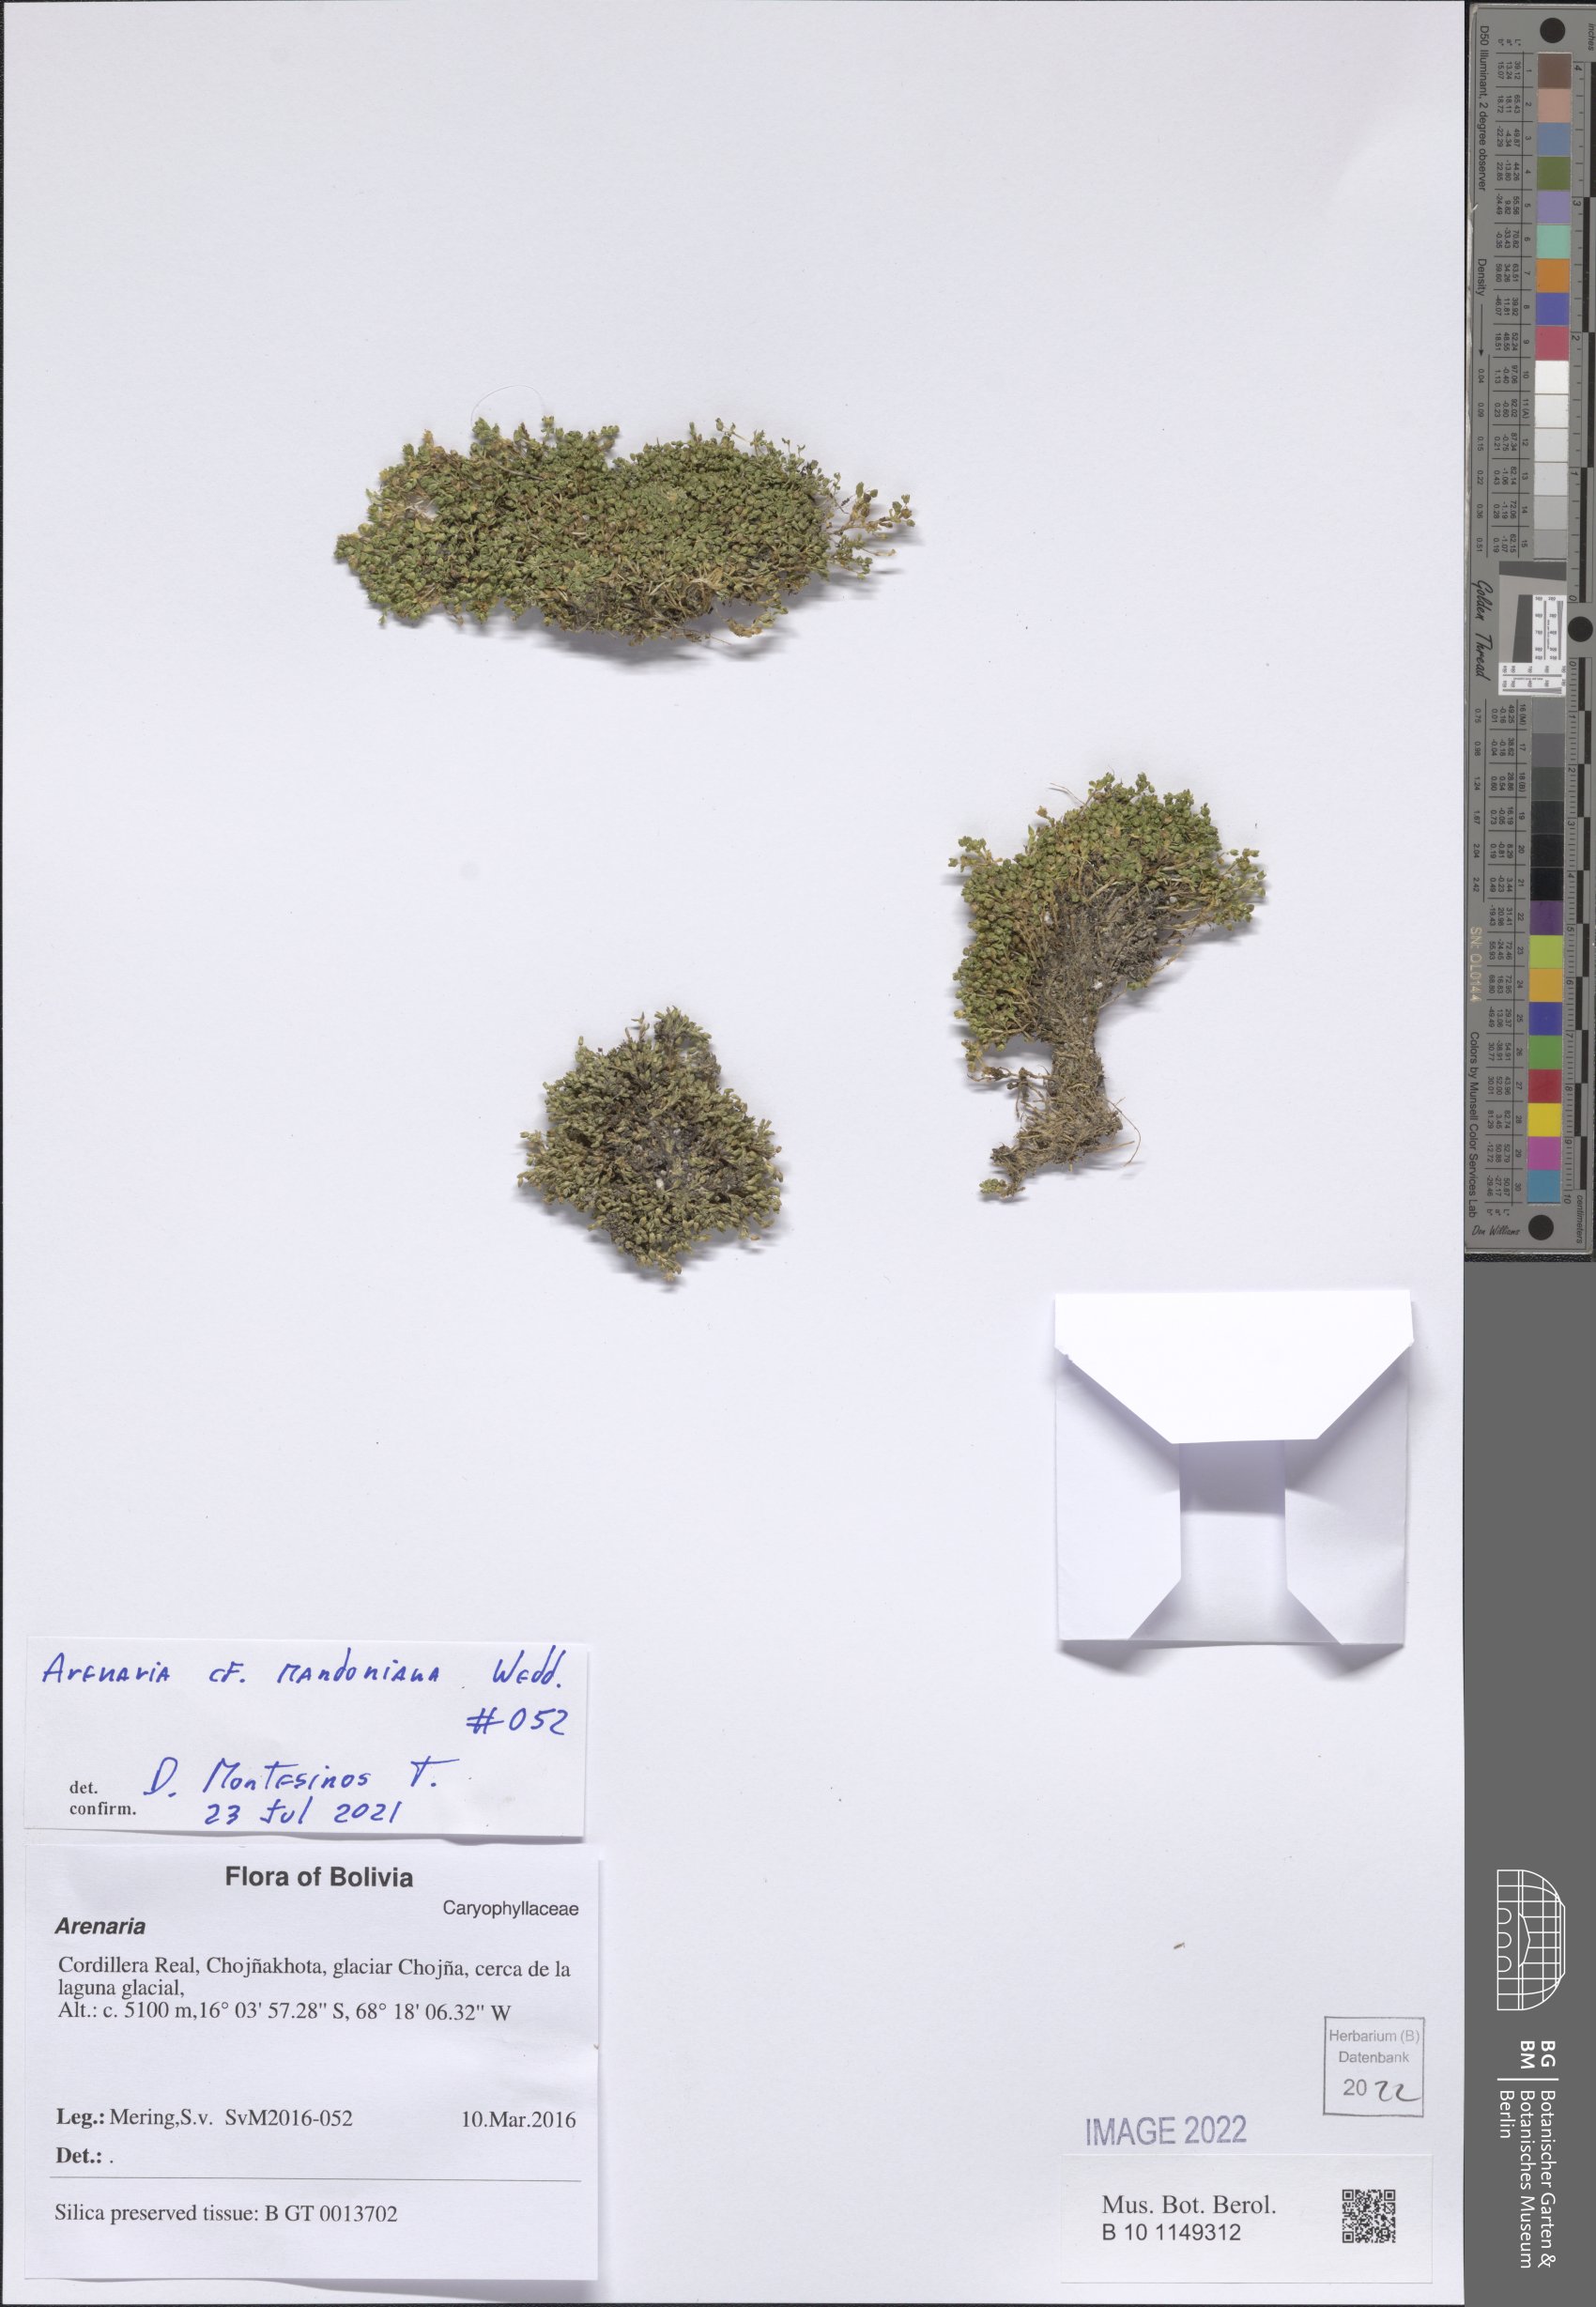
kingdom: Plantae
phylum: Tracheophyta
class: Magnoliopsida
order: Caryophyllales
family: Caryophyllaceae
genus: Arenaria
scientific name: Arenaria mandoniana
